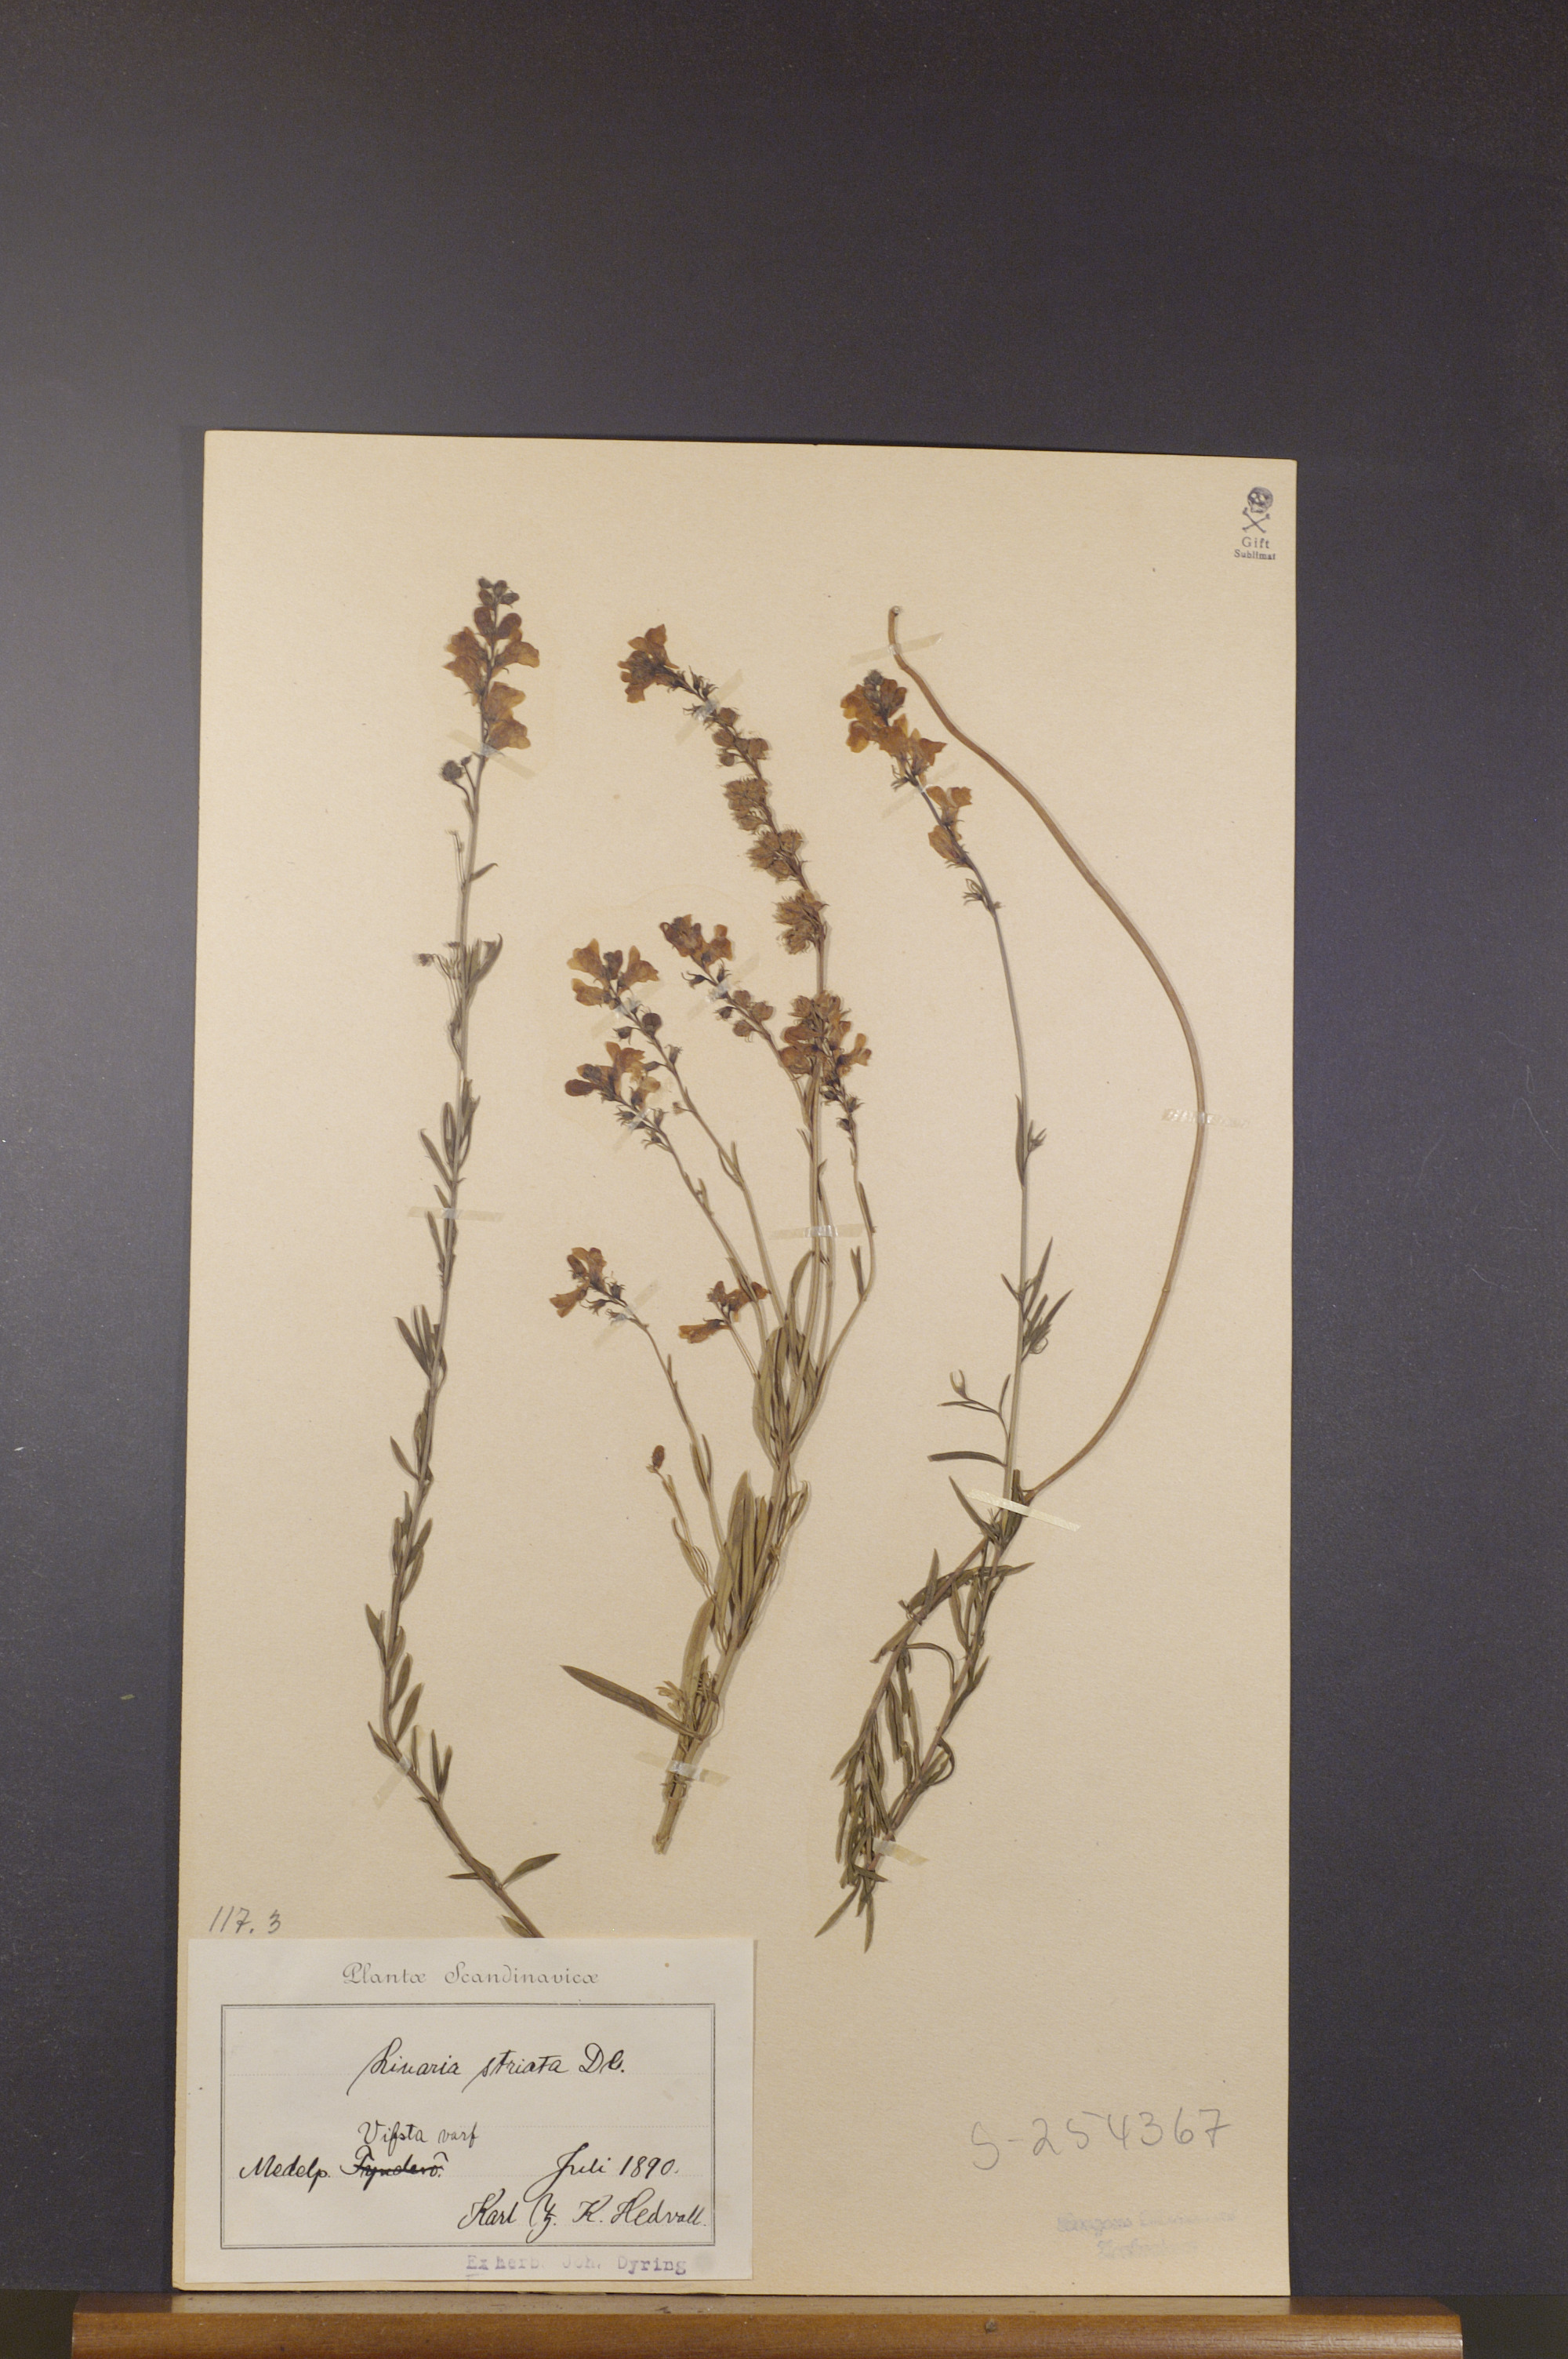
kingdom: Plantae
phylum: Tracheophyta
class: Magnoliopsida
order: Lamiales
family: Plantaginaceae
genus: Linaria
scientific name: Linaria repens
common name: Pale toadflax
